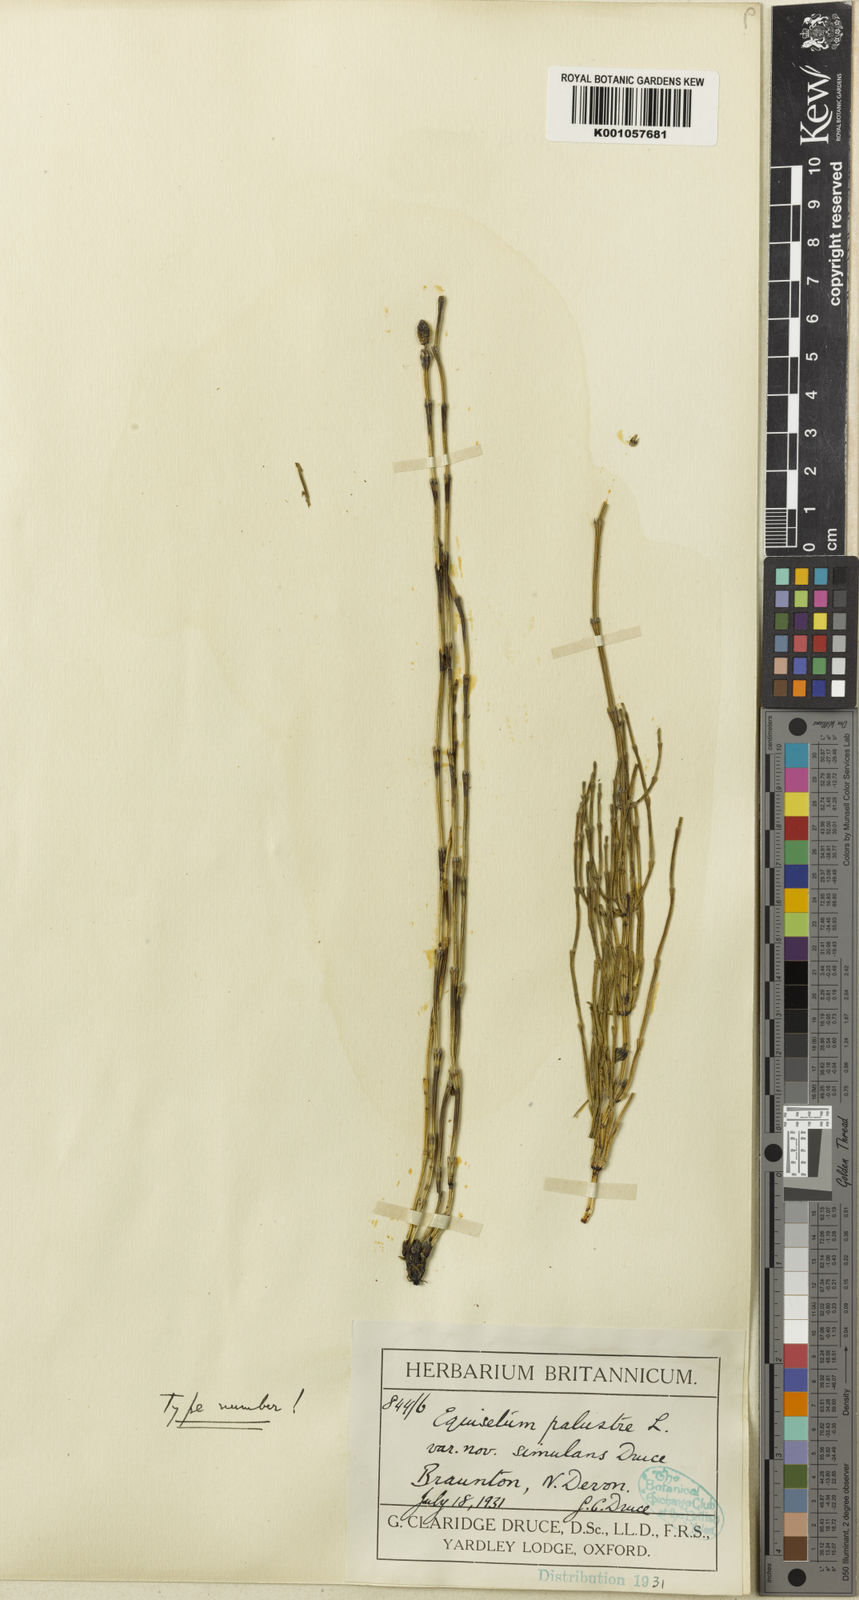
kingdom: Plantae
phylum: Tracheophyta
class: Polypodiopsida
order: Equisetales
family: Equisetaceae
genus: Equisetum
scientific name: Equisetum palustre
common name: Marsh horsetail
